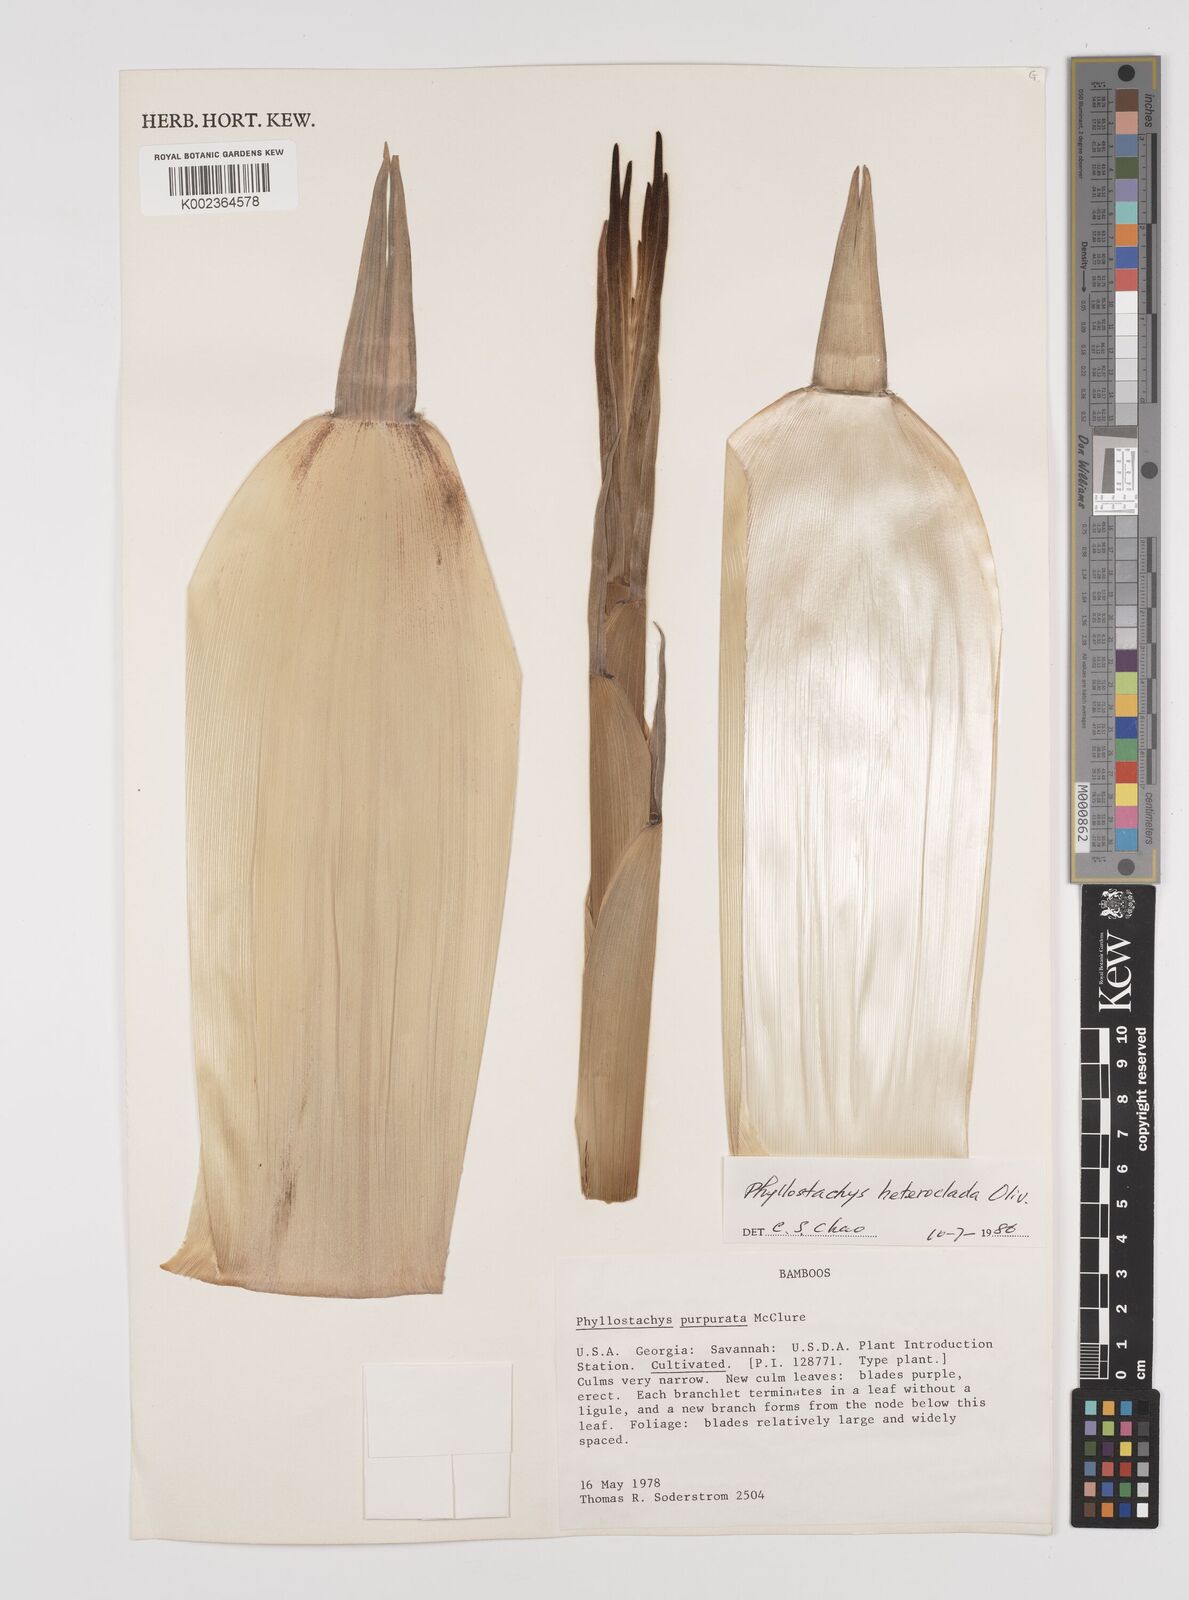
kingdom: Plantae
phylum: Tracheophyta
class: Liliopsida
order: Poales
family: Poaceae
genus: Phyllostachys
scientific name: Phyllostachys heteroclada
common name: Fishscale bamboo
